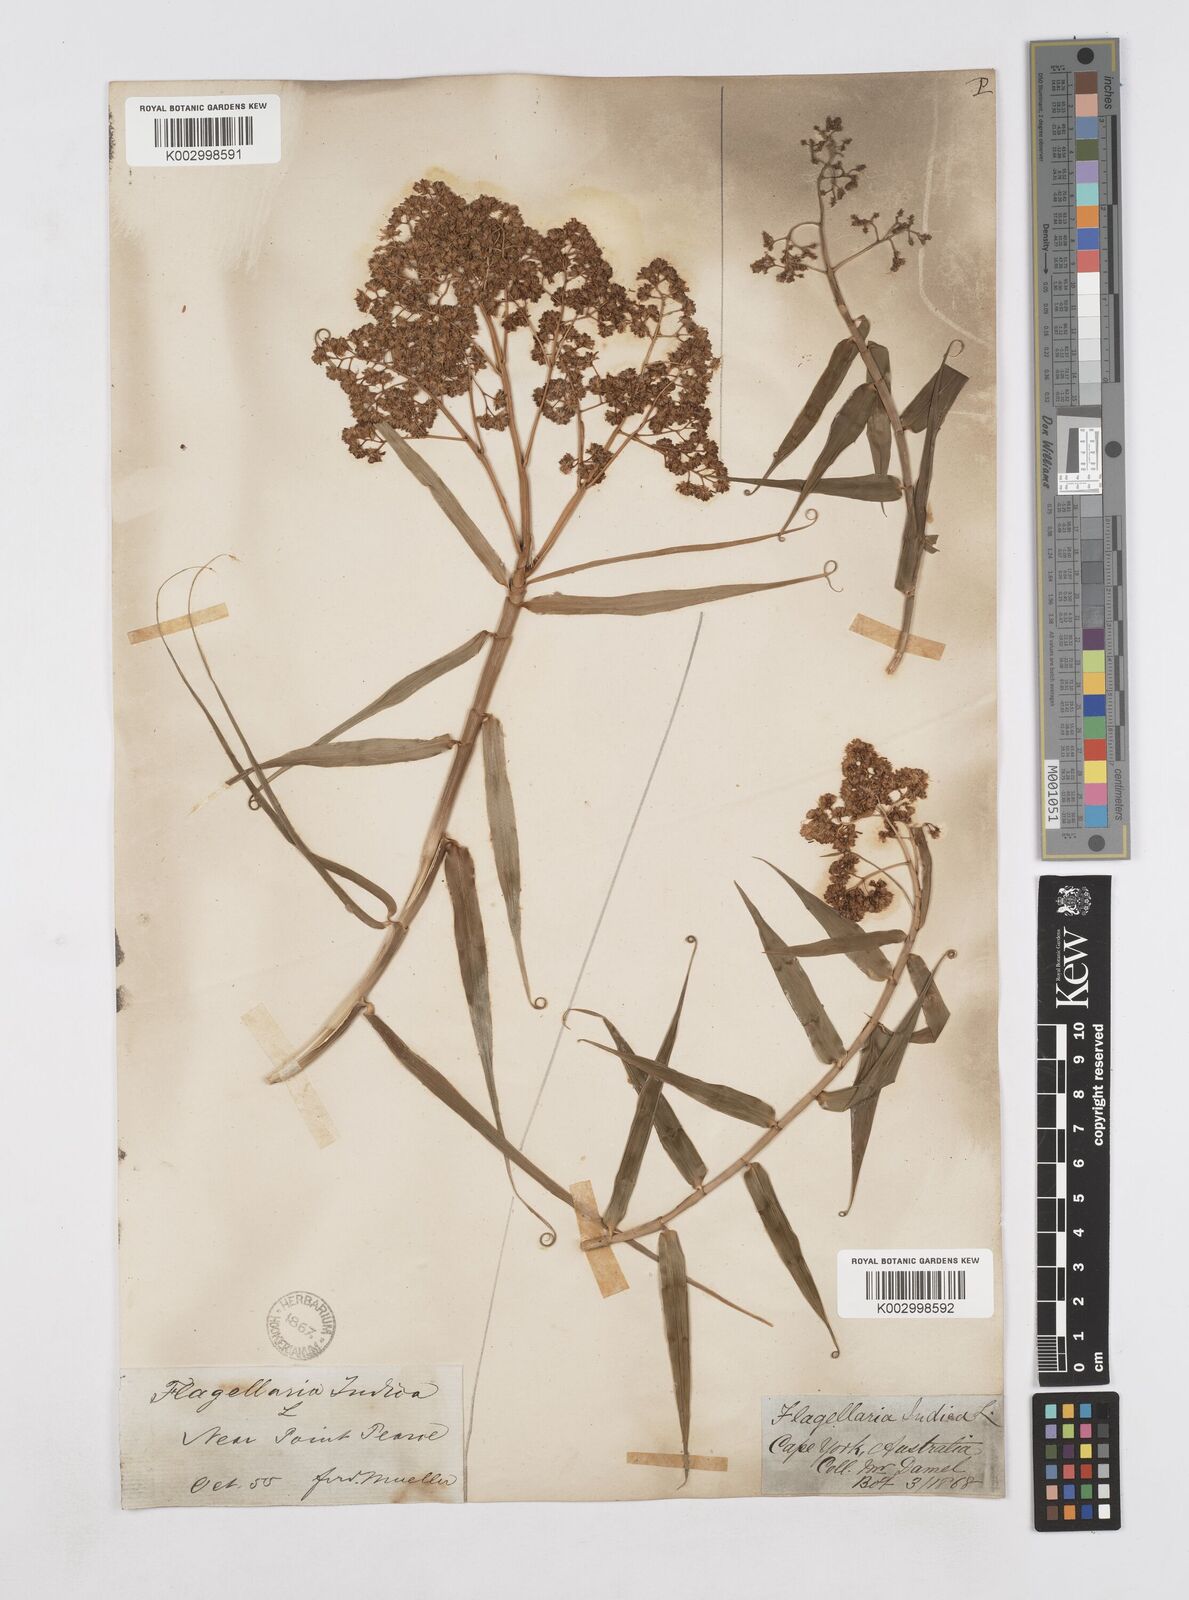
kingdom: Plantae
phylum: Tracheophyta
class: Liliopsida
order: Poales
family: Flagellariaceae
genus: Flagellaria
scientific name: Flagellaria indica
